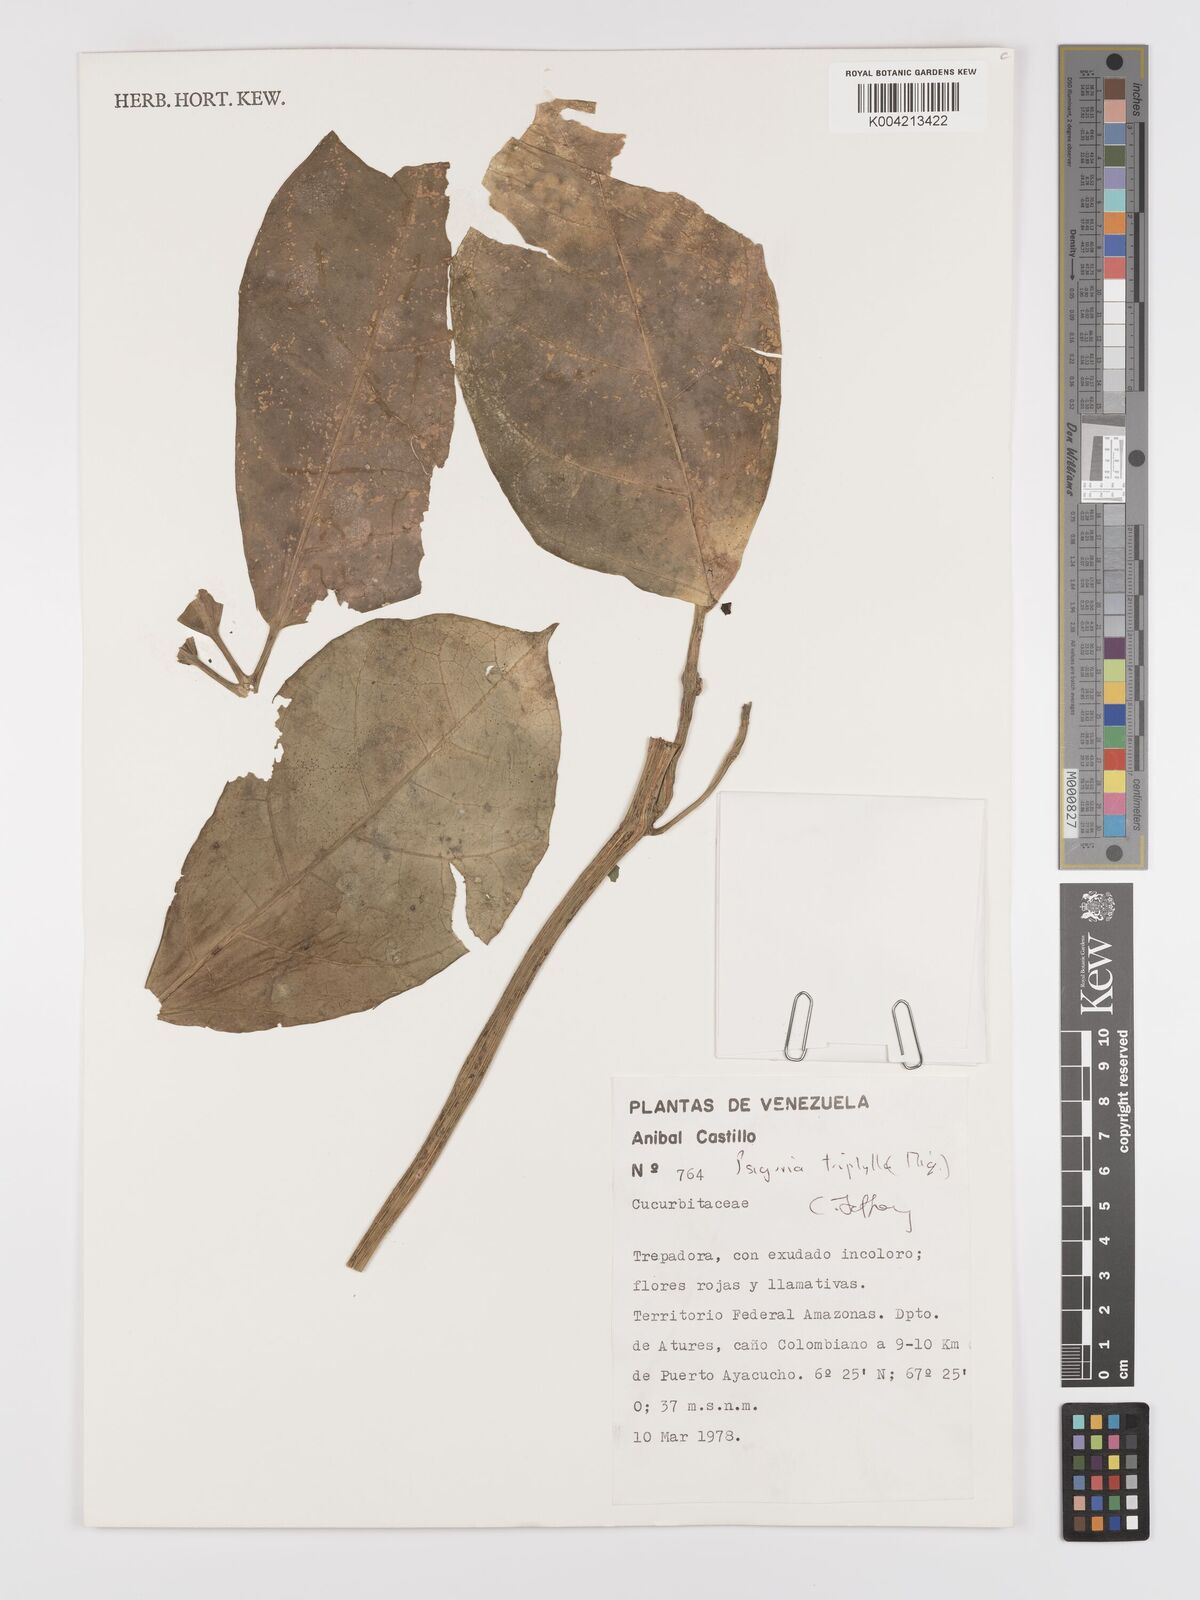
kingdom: Plantae
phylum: Tracheophyta
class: Magnoliopsida
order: Cucurbitales
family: Cucurbitaceae
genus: Psiguria
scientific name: Psiguria triphylla
